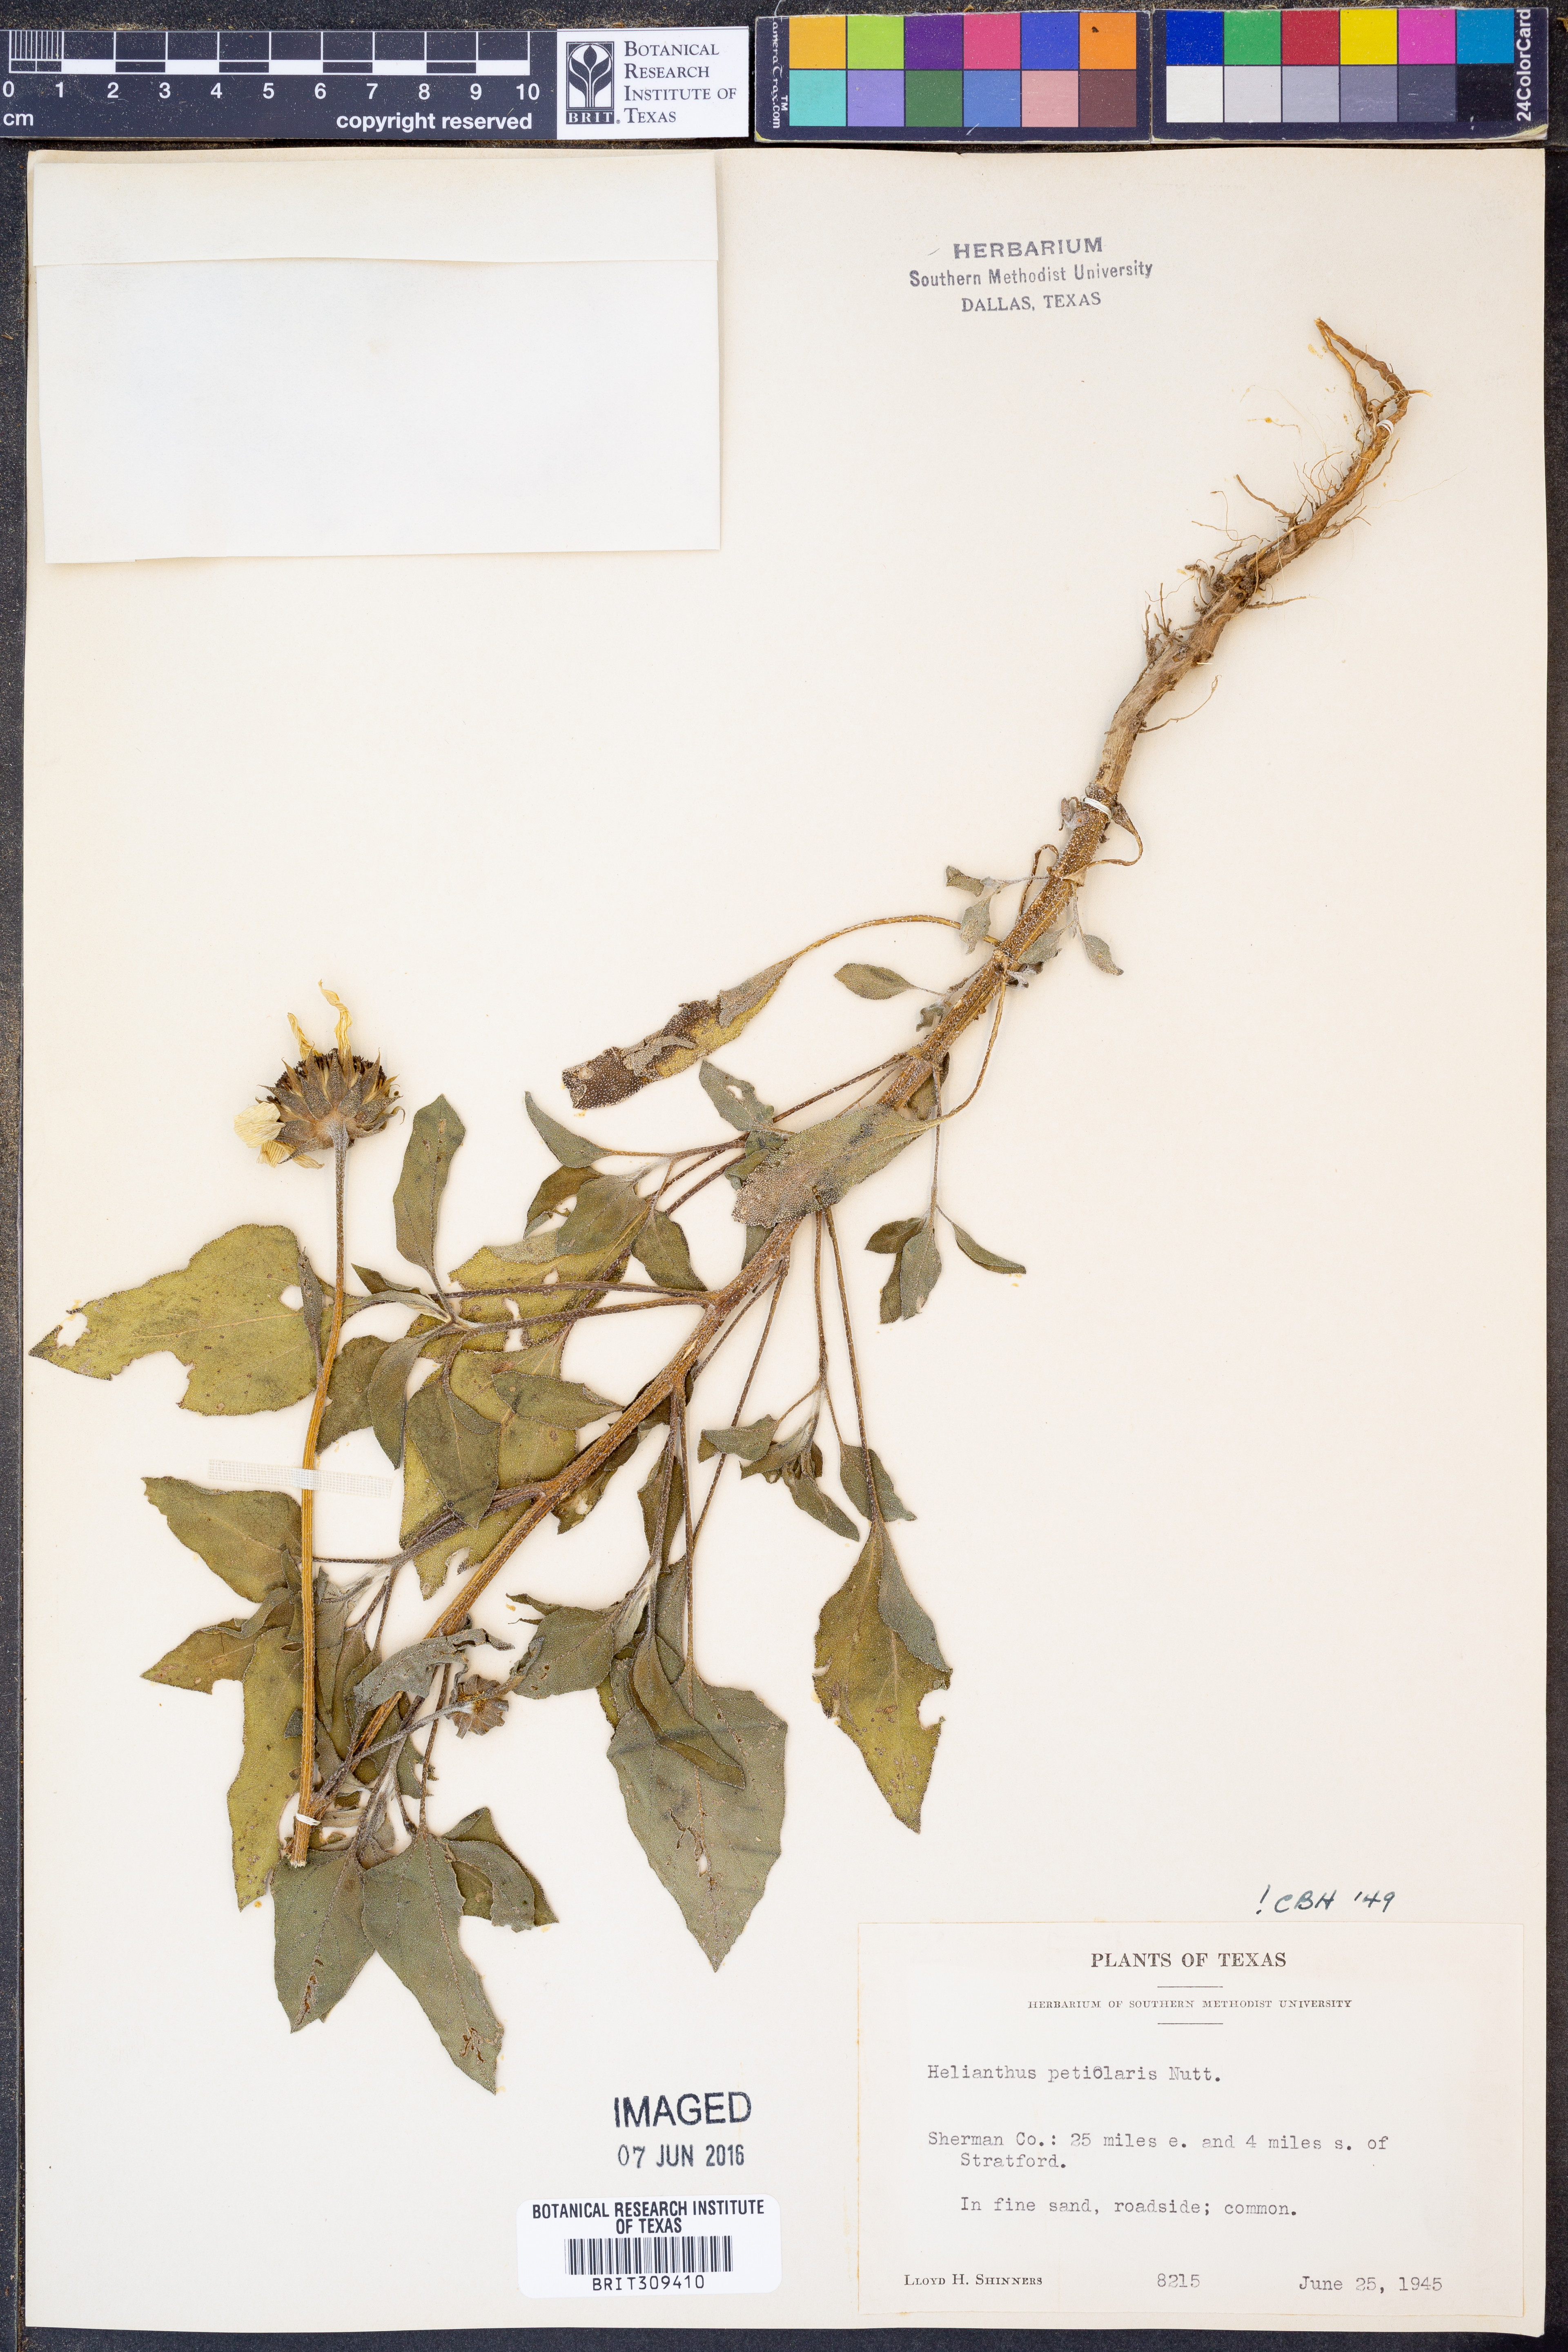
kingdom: Plantae
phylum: Tracheophyta
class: Magnoliopsida
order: Asterales
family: Asteraceae
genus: Helianthus
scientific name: Helianthus petiolaris
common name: Lesser sunflower
